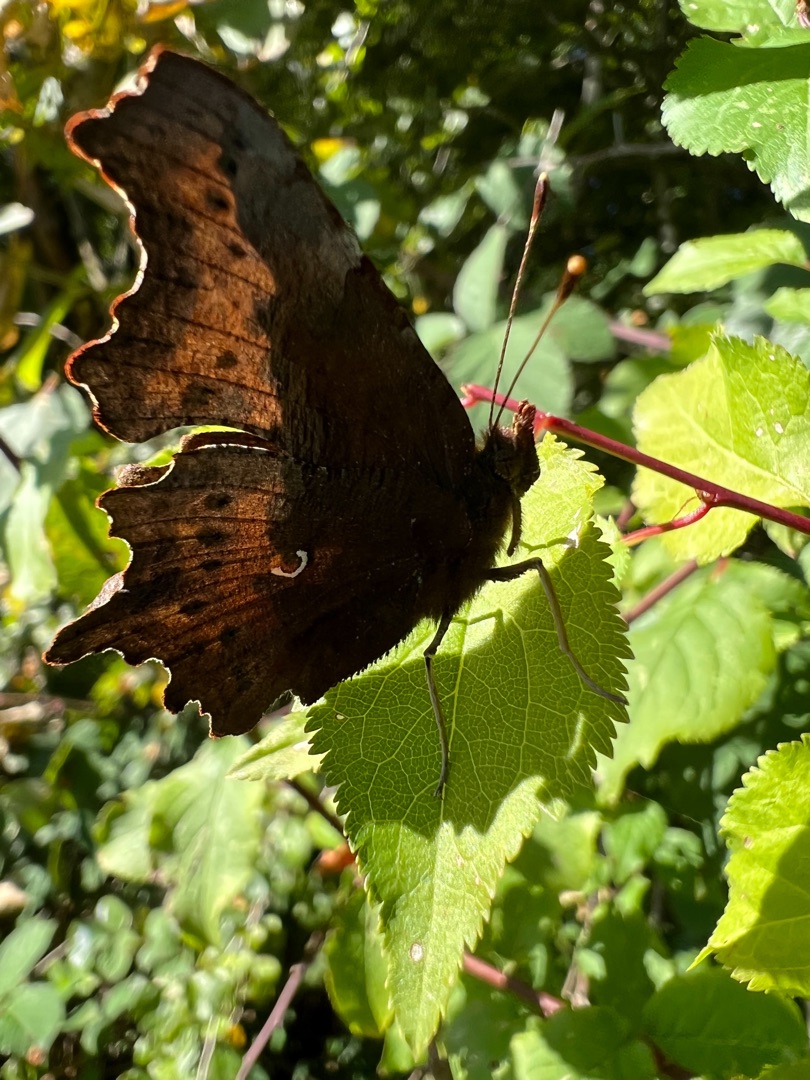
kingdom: Animalia
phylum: Arthropoda
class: Insecta
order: Lepidoptera
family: Nymphalidae
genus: Polygonia
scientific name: Polygonia c-album
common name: Det hvide C
